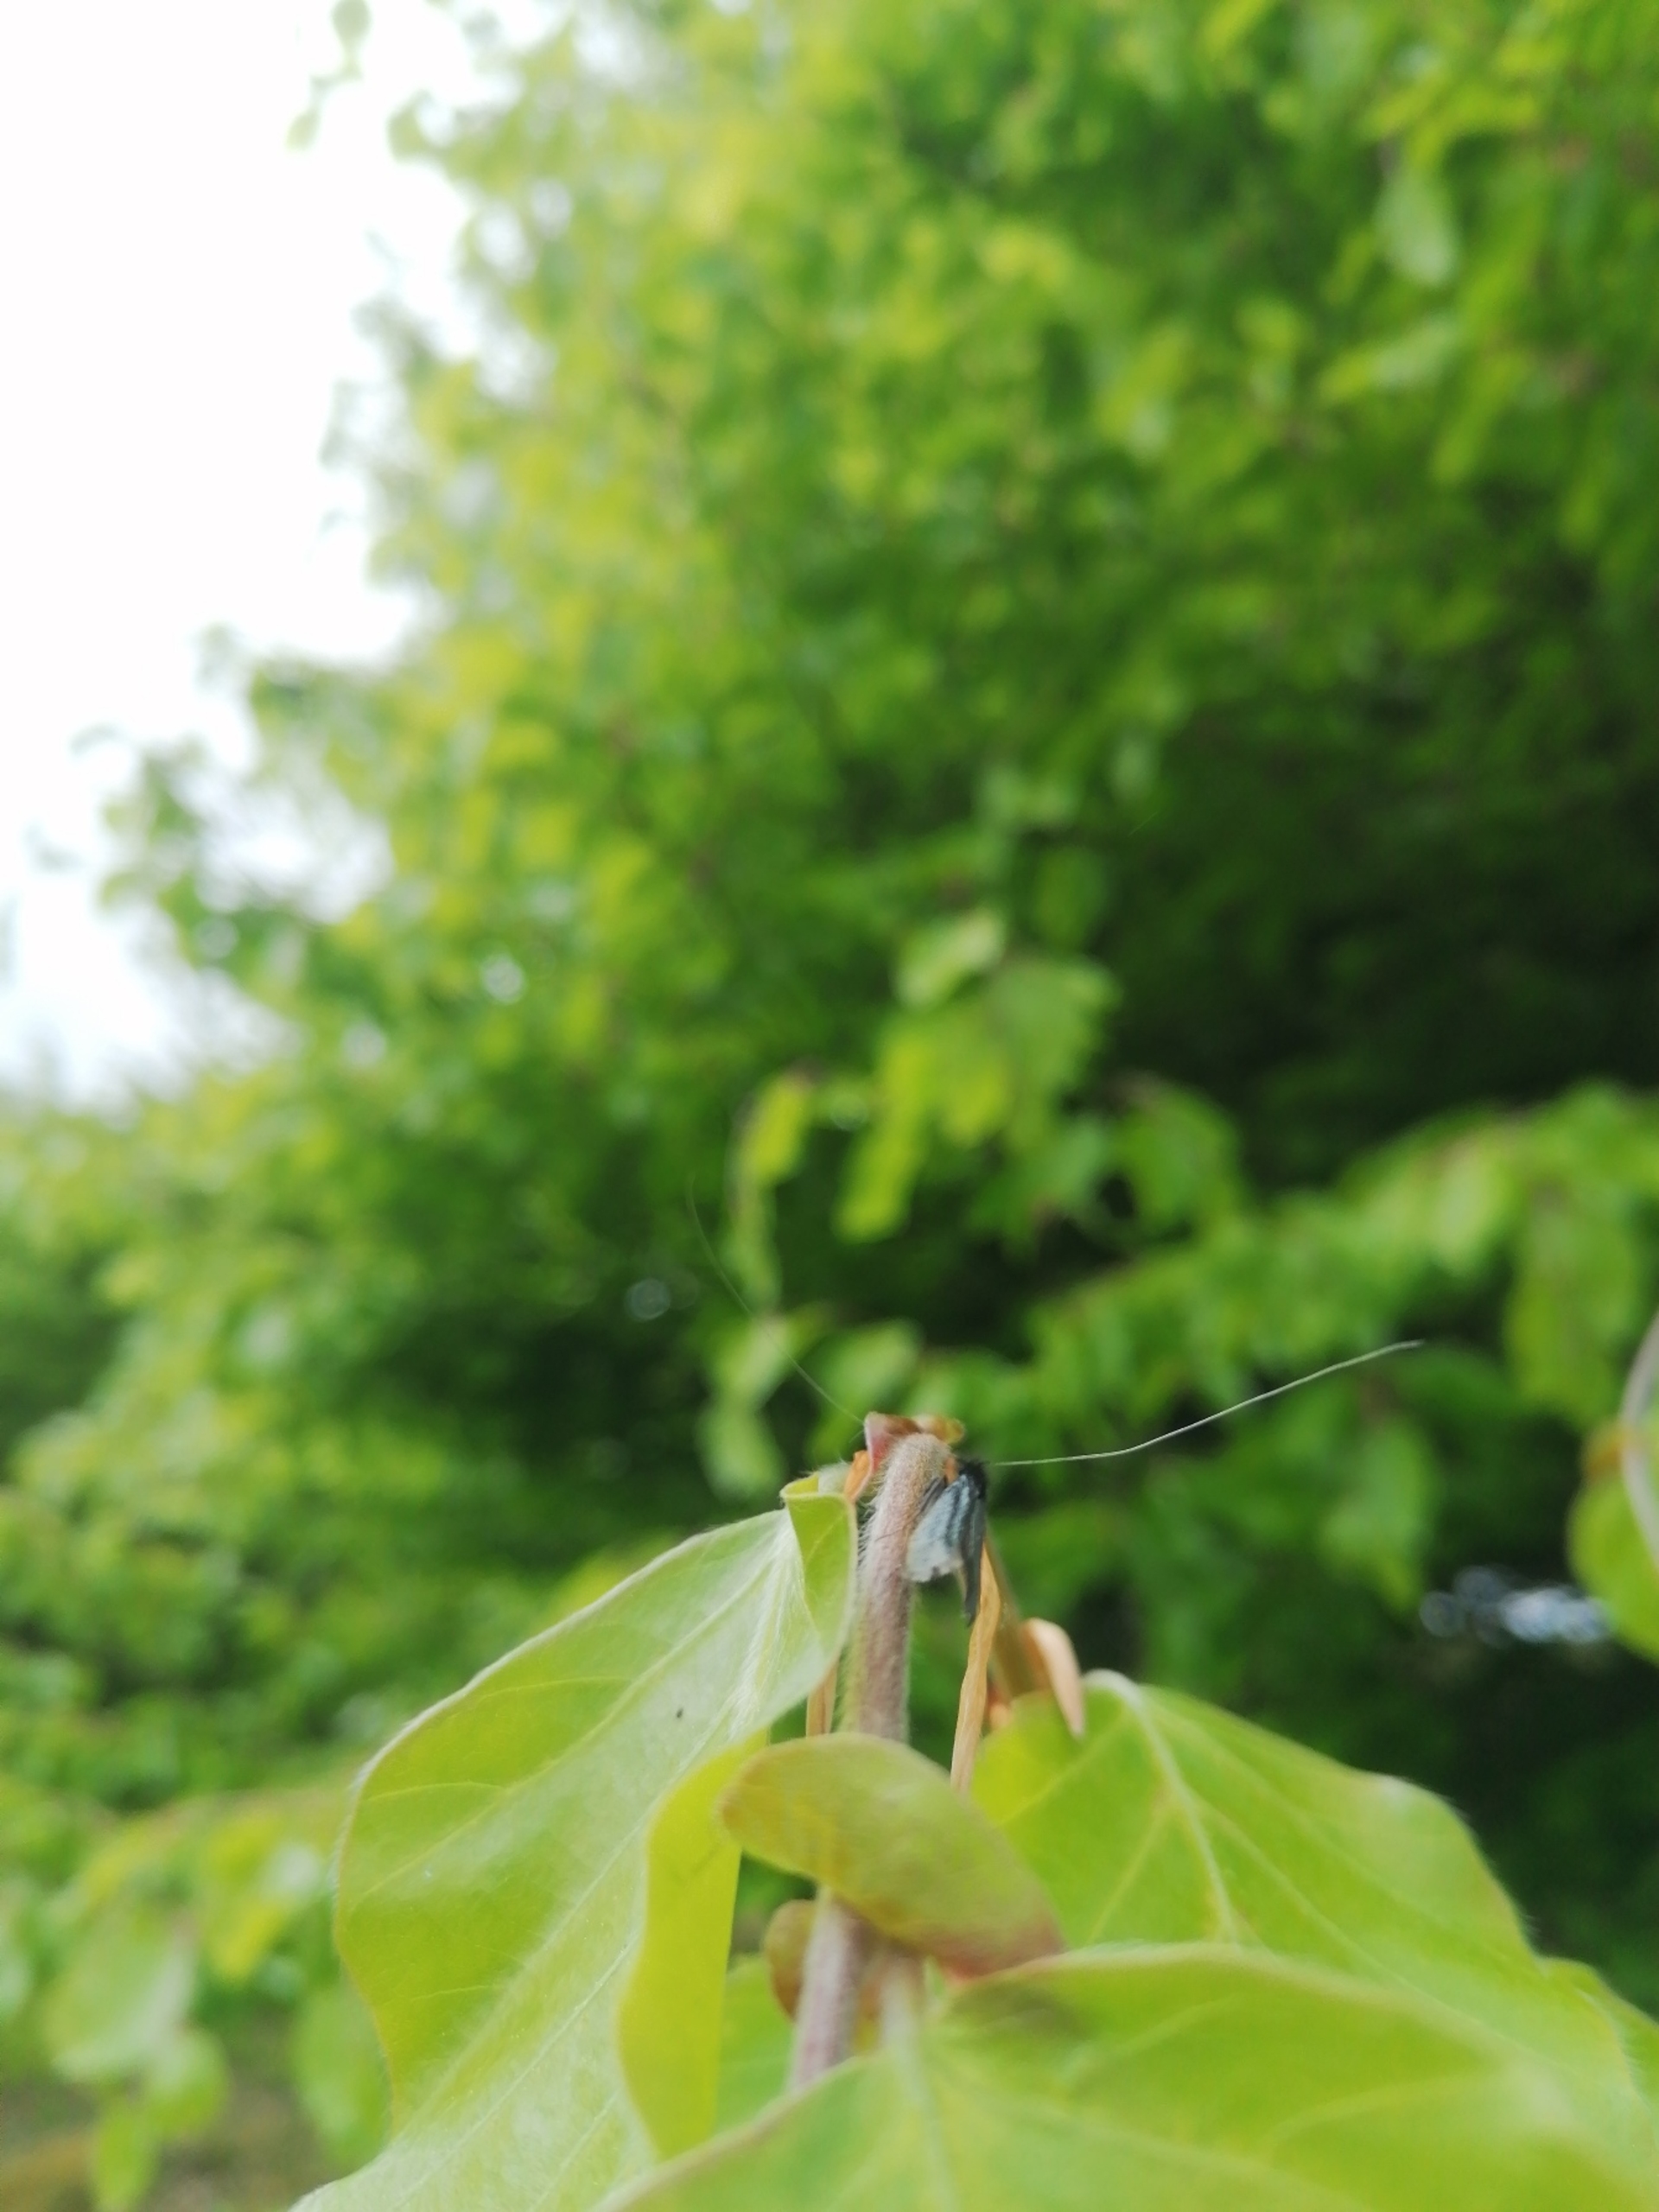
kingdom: Animalia
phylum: Arthropoda
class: Insecta
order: Lepidoptera
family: Adelidae
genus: Adela
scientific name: Adela viridella
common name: Egelanghornsmøl
